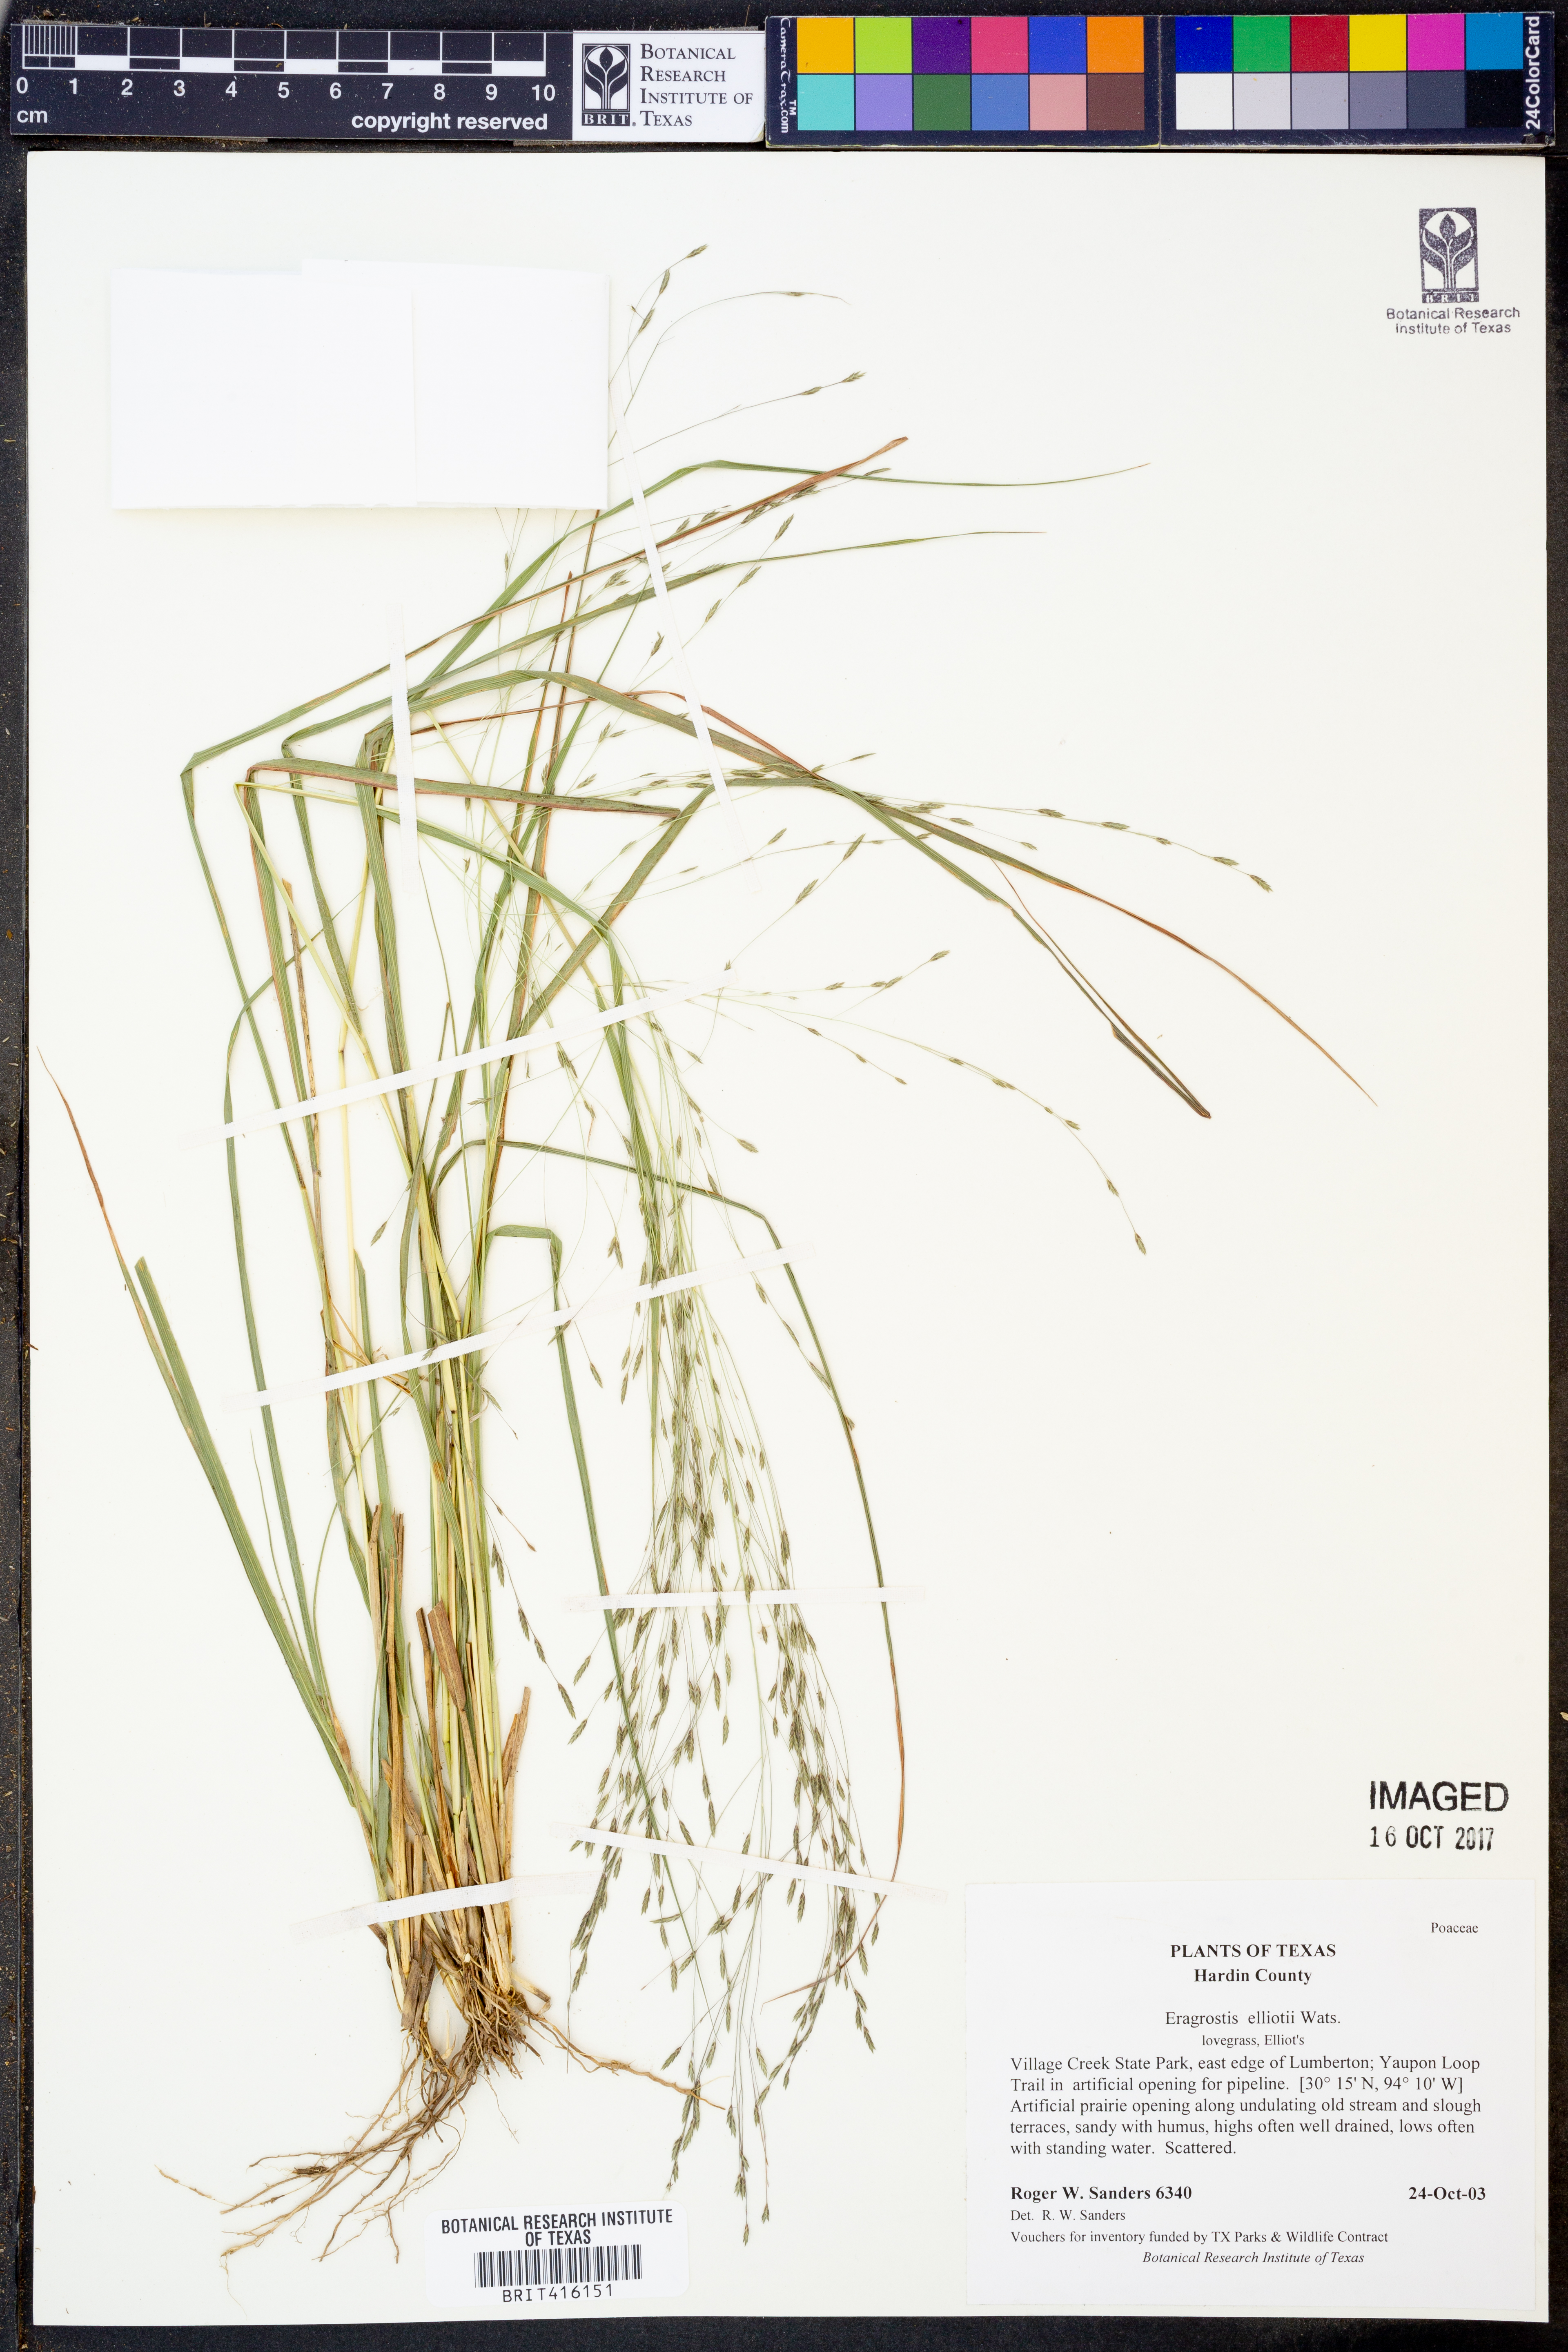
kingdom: Plantae
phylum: Tracheophyta
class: Liliopsida
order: Poales
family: Poaceae
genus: Eragrostis
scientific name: Eragrostis elliottii
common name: Elliott's love grass
